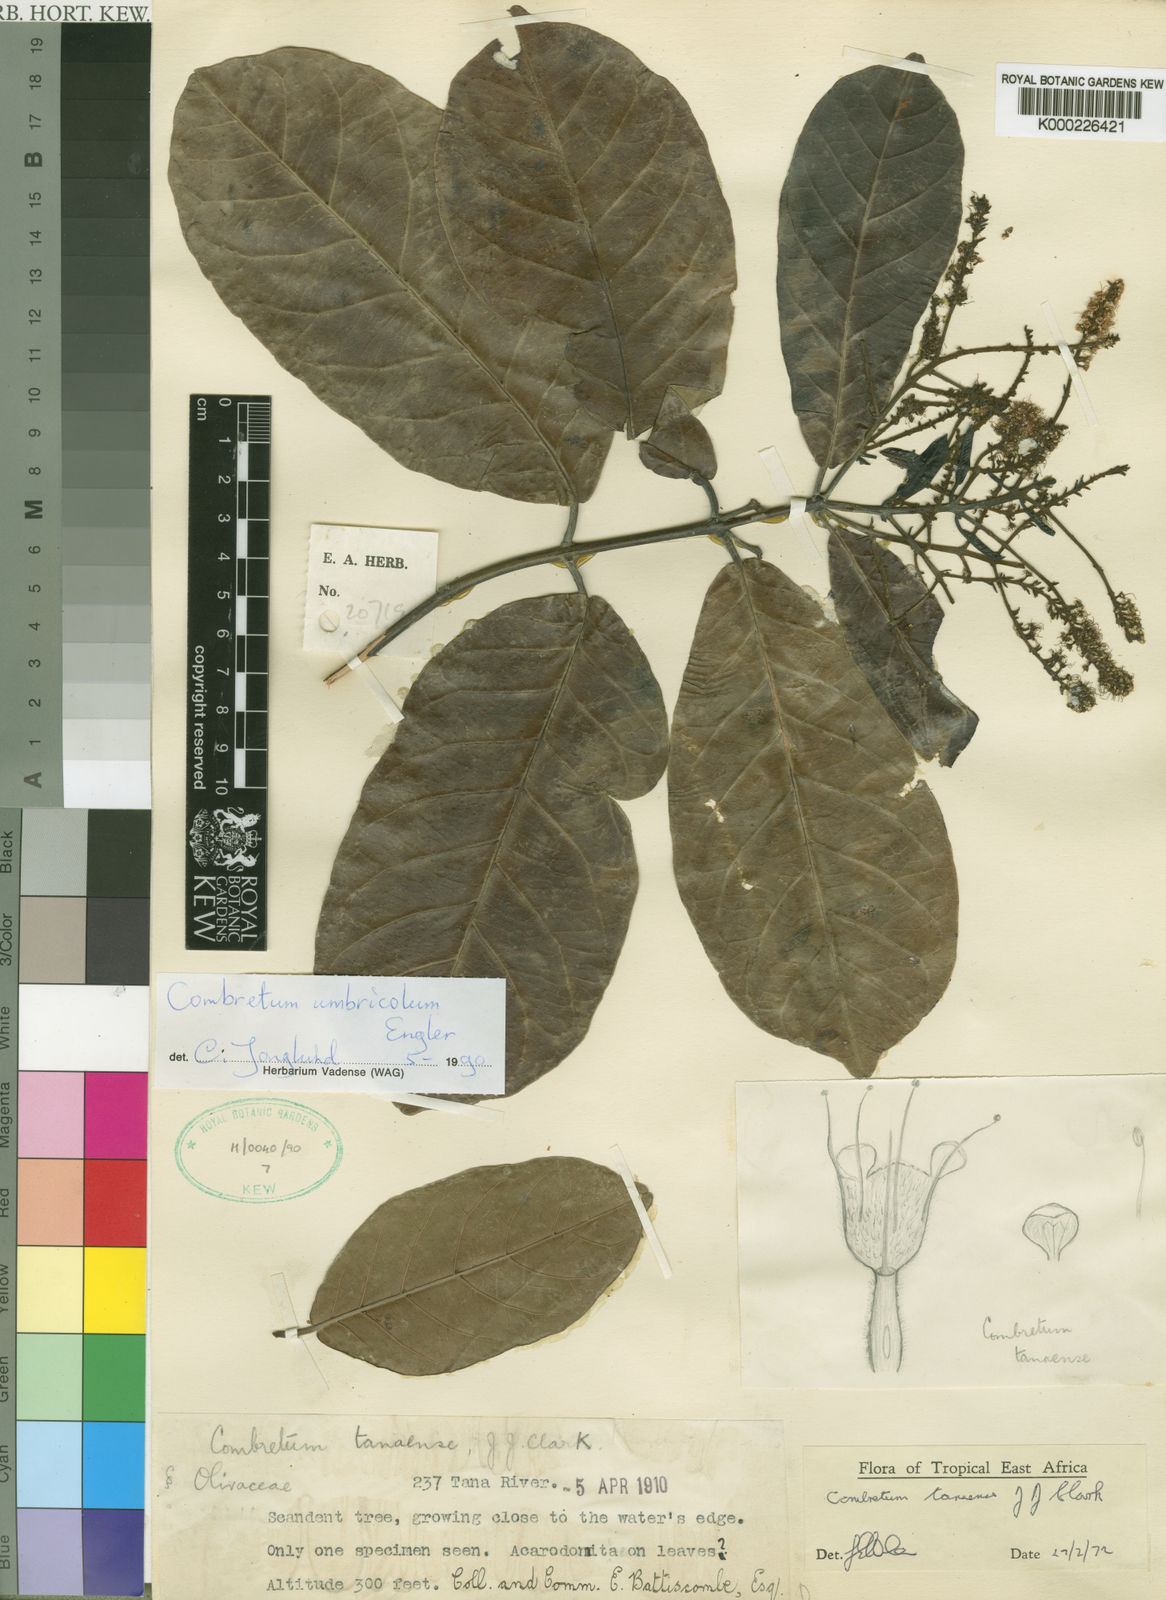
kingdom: Plantae
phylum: Tracheophyta
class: Magnoliopsida
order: Myrtales
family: Combretaceae
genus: Combretum
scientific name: Combretum umbricola
